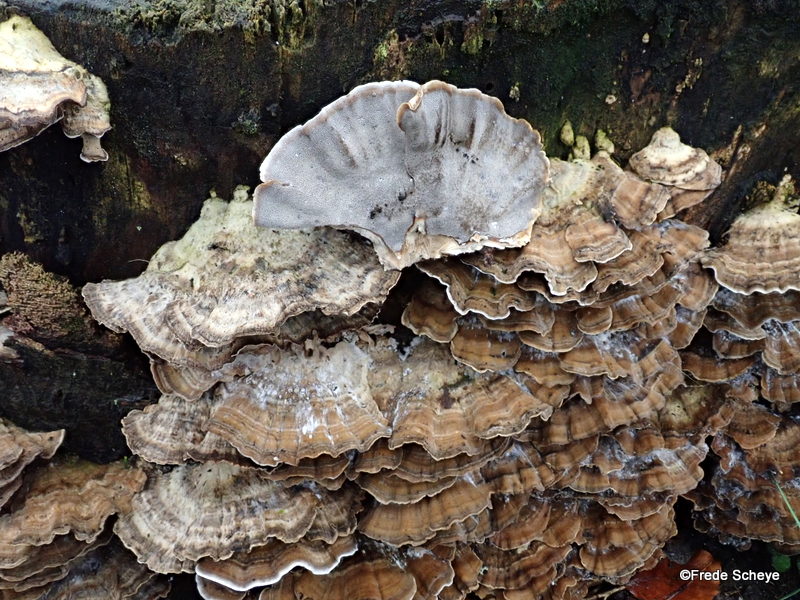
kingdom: Fungi
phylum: Basidiomycota
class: Agaricomycetes
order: Polyporales
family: Phanerochaetaceae
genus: Bjerkandera
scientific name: Bjerkandera adusta
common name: sveden sodporesvamp
